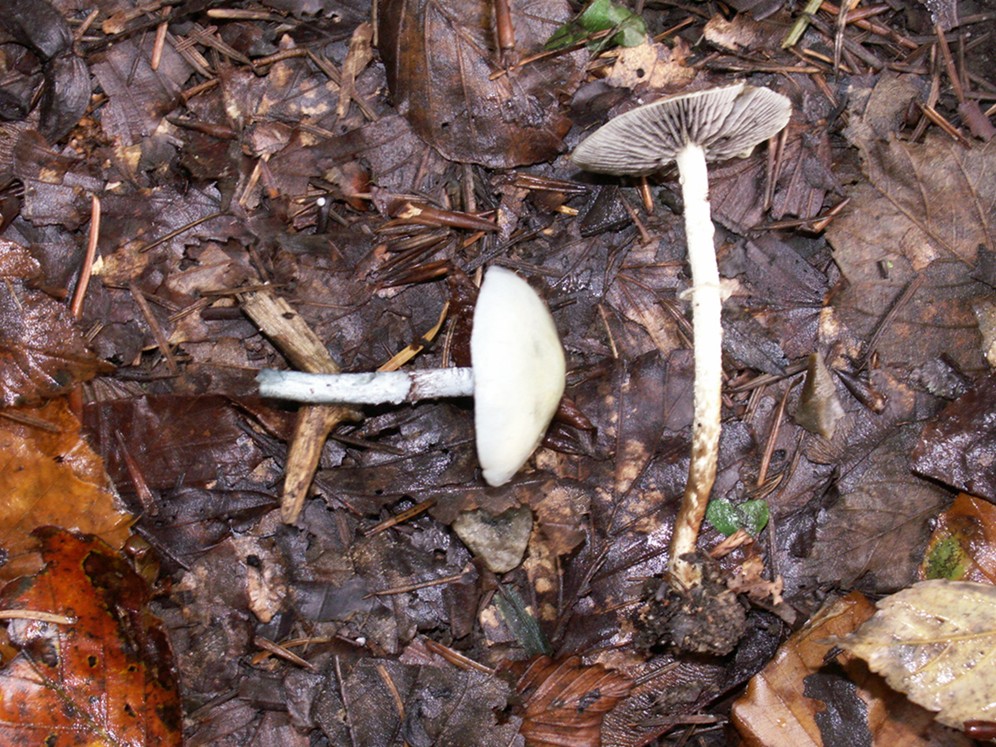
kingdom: Fungi
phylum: Basidiomycota
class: Agaricomycetes
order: Agaricales
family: Strophariaceae
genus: Stropharia
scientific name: Stropharia pseudocyanea
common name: blegblå bredblad
